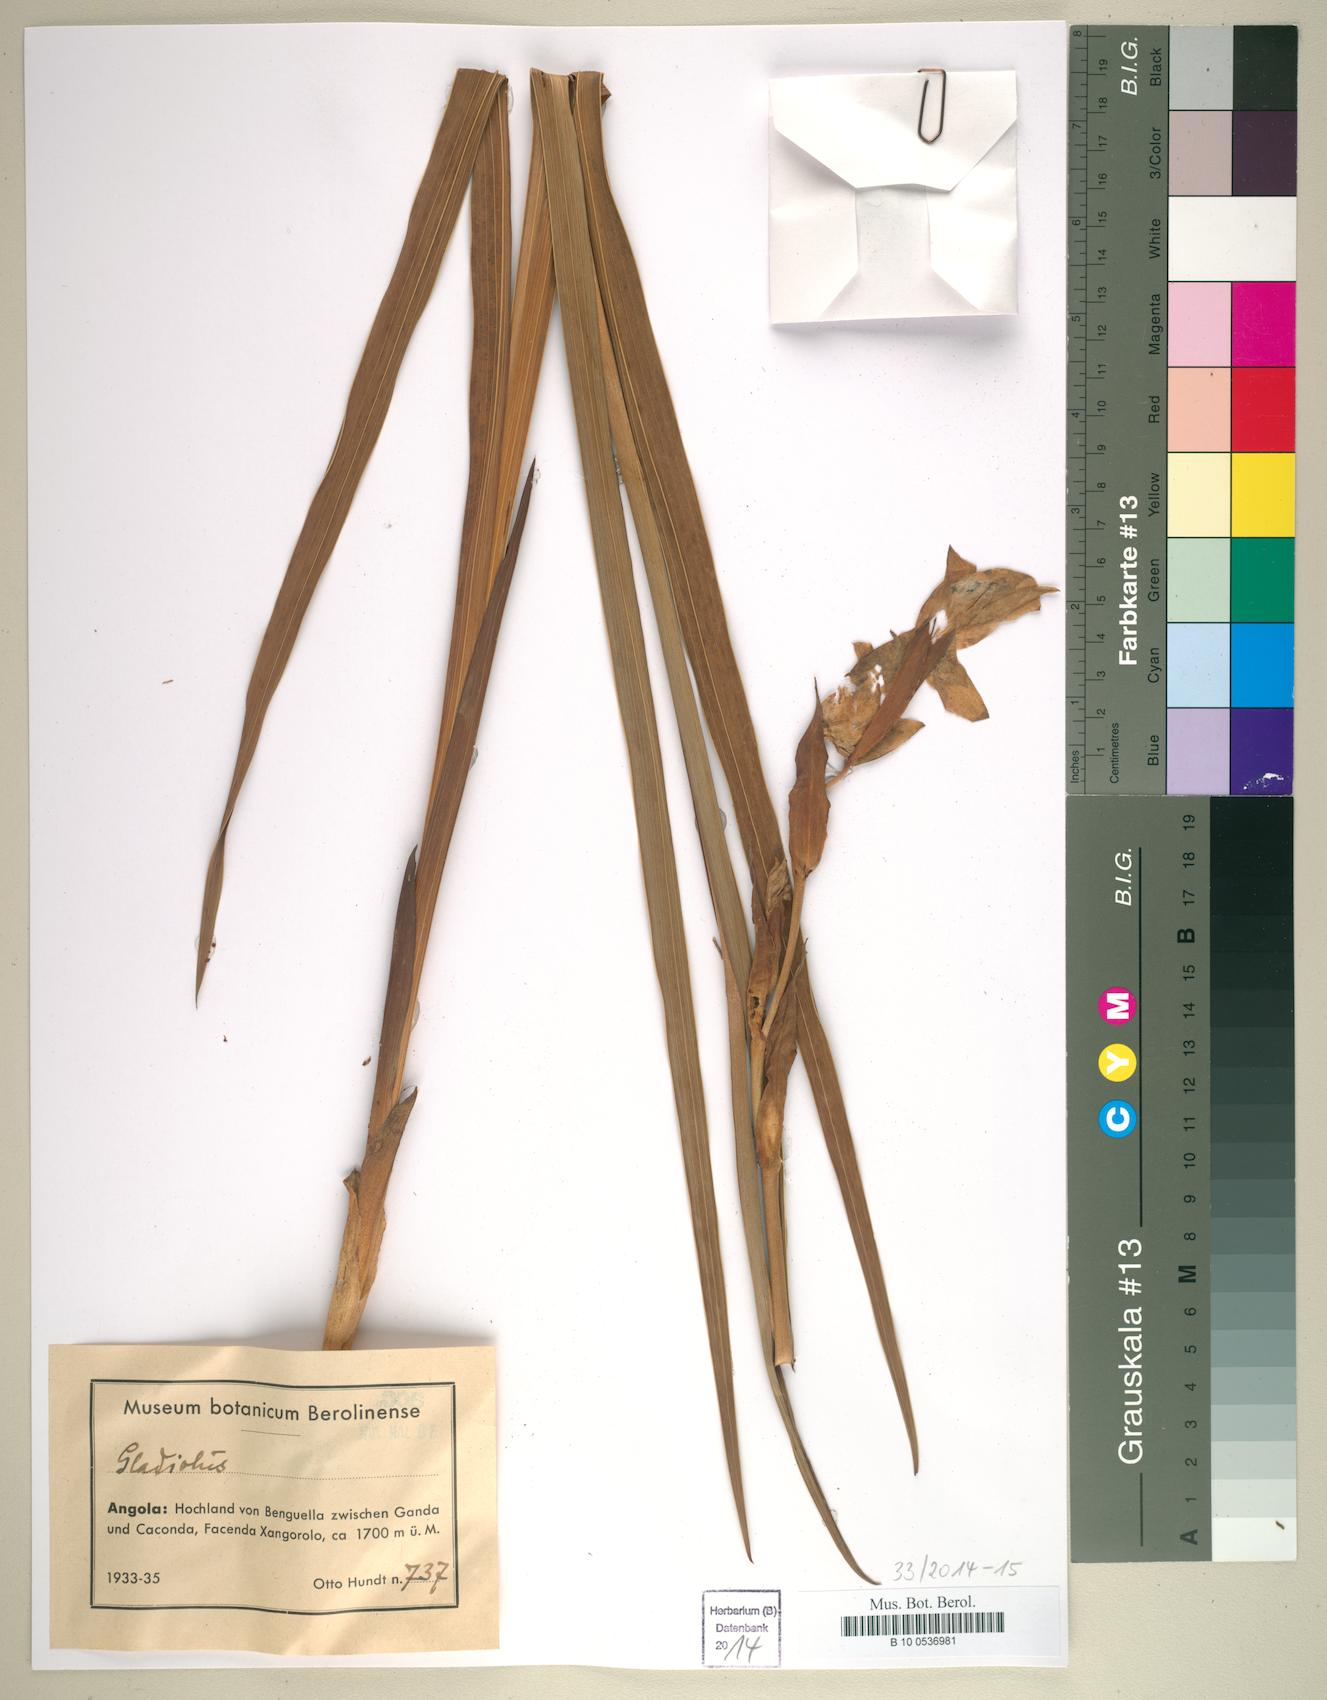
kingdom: Plantae
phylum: Tracheophyta
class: Liliopsida
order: Asparagales
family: Iridaceae
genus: Gladiolus
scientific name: Gladiolus
